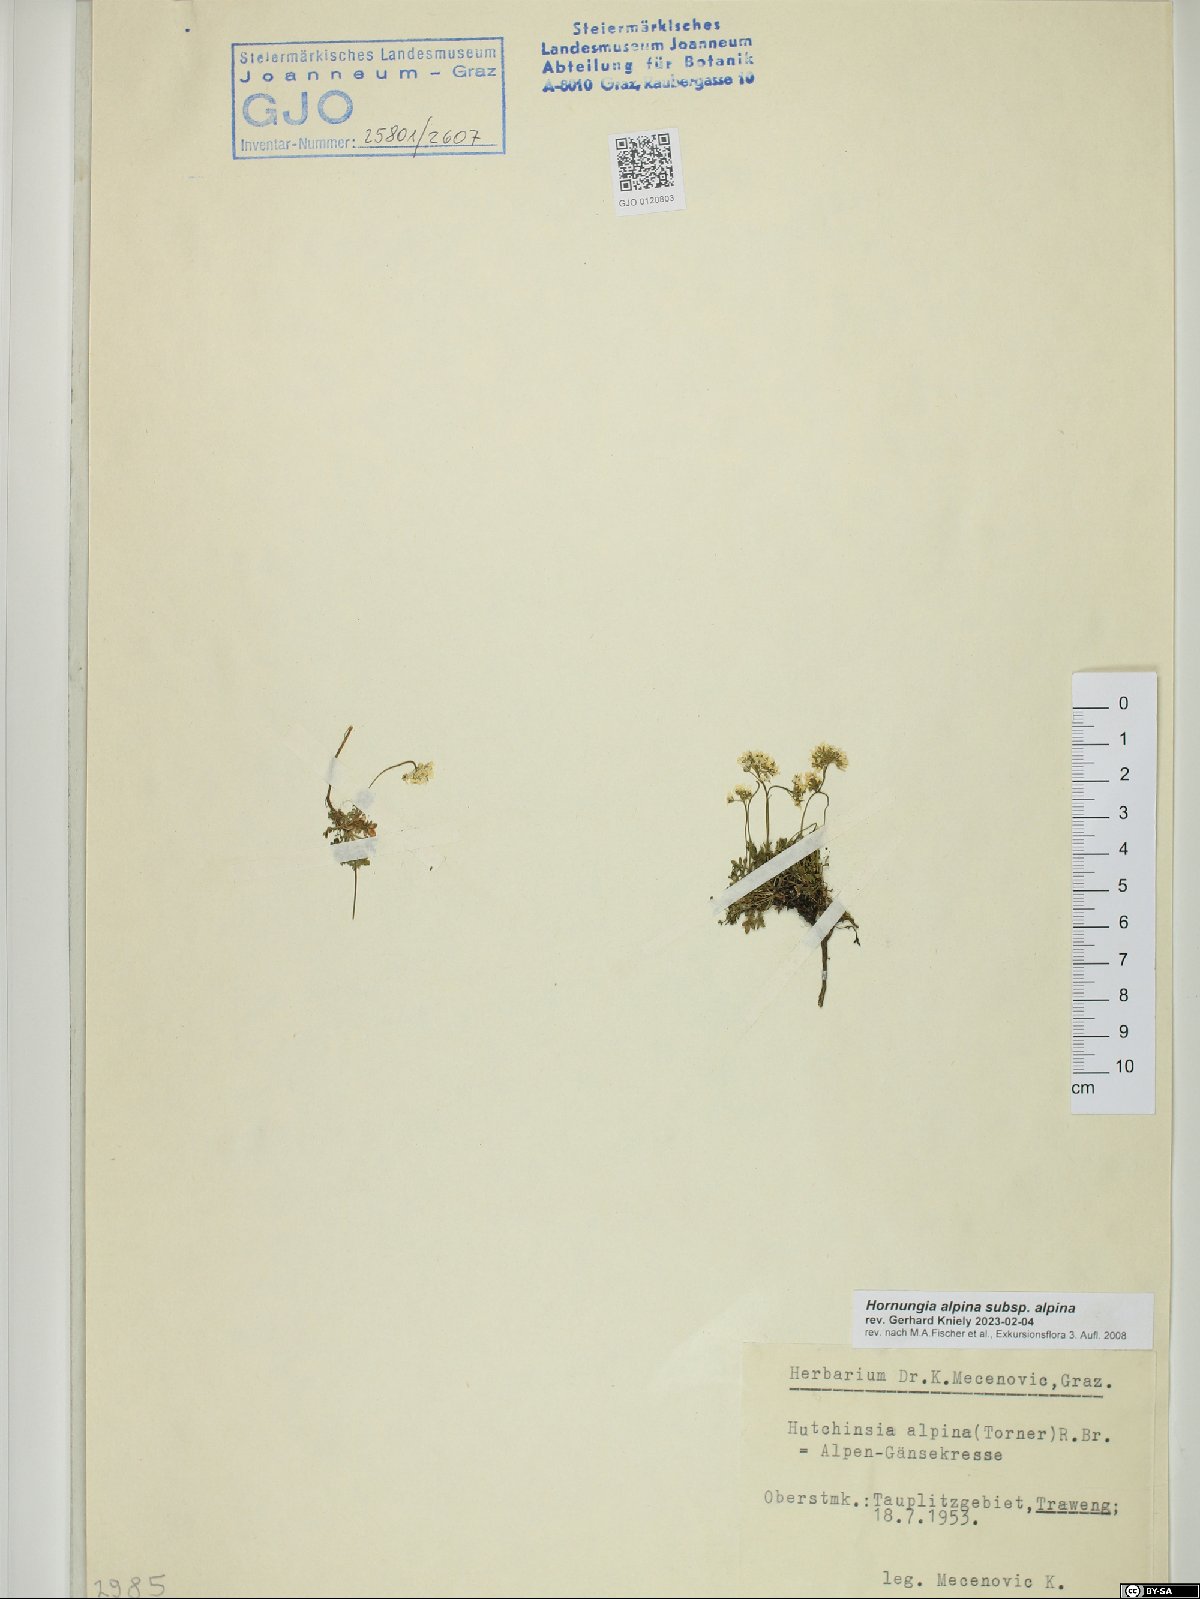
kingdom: Plantae
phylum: Tracheophyta
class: Magnoliopsida
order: Brassicales
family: Brassicaceae
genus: Hornungia
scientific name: Hornungia alpina
